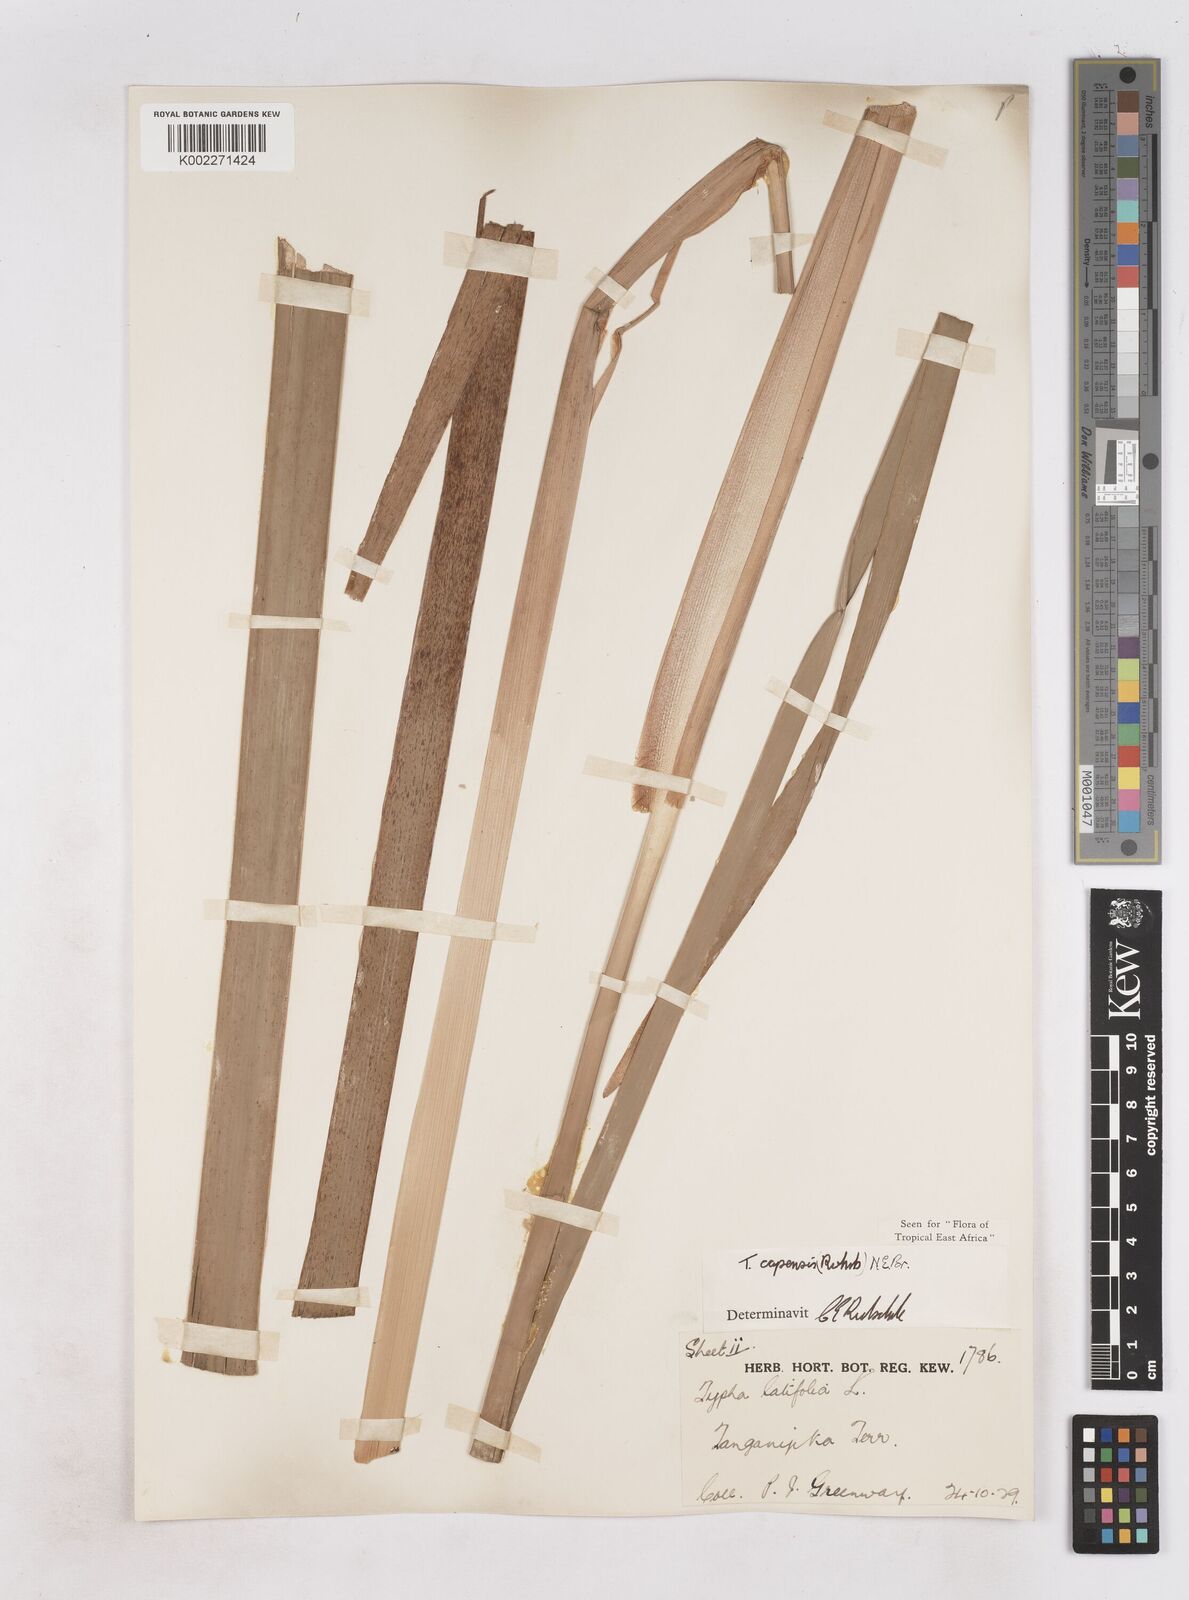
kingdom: Plantae
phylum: Tracheophyta
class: Liliopsida
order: Poales
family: Typhaceae
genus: Typha
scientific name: Typha capensis
